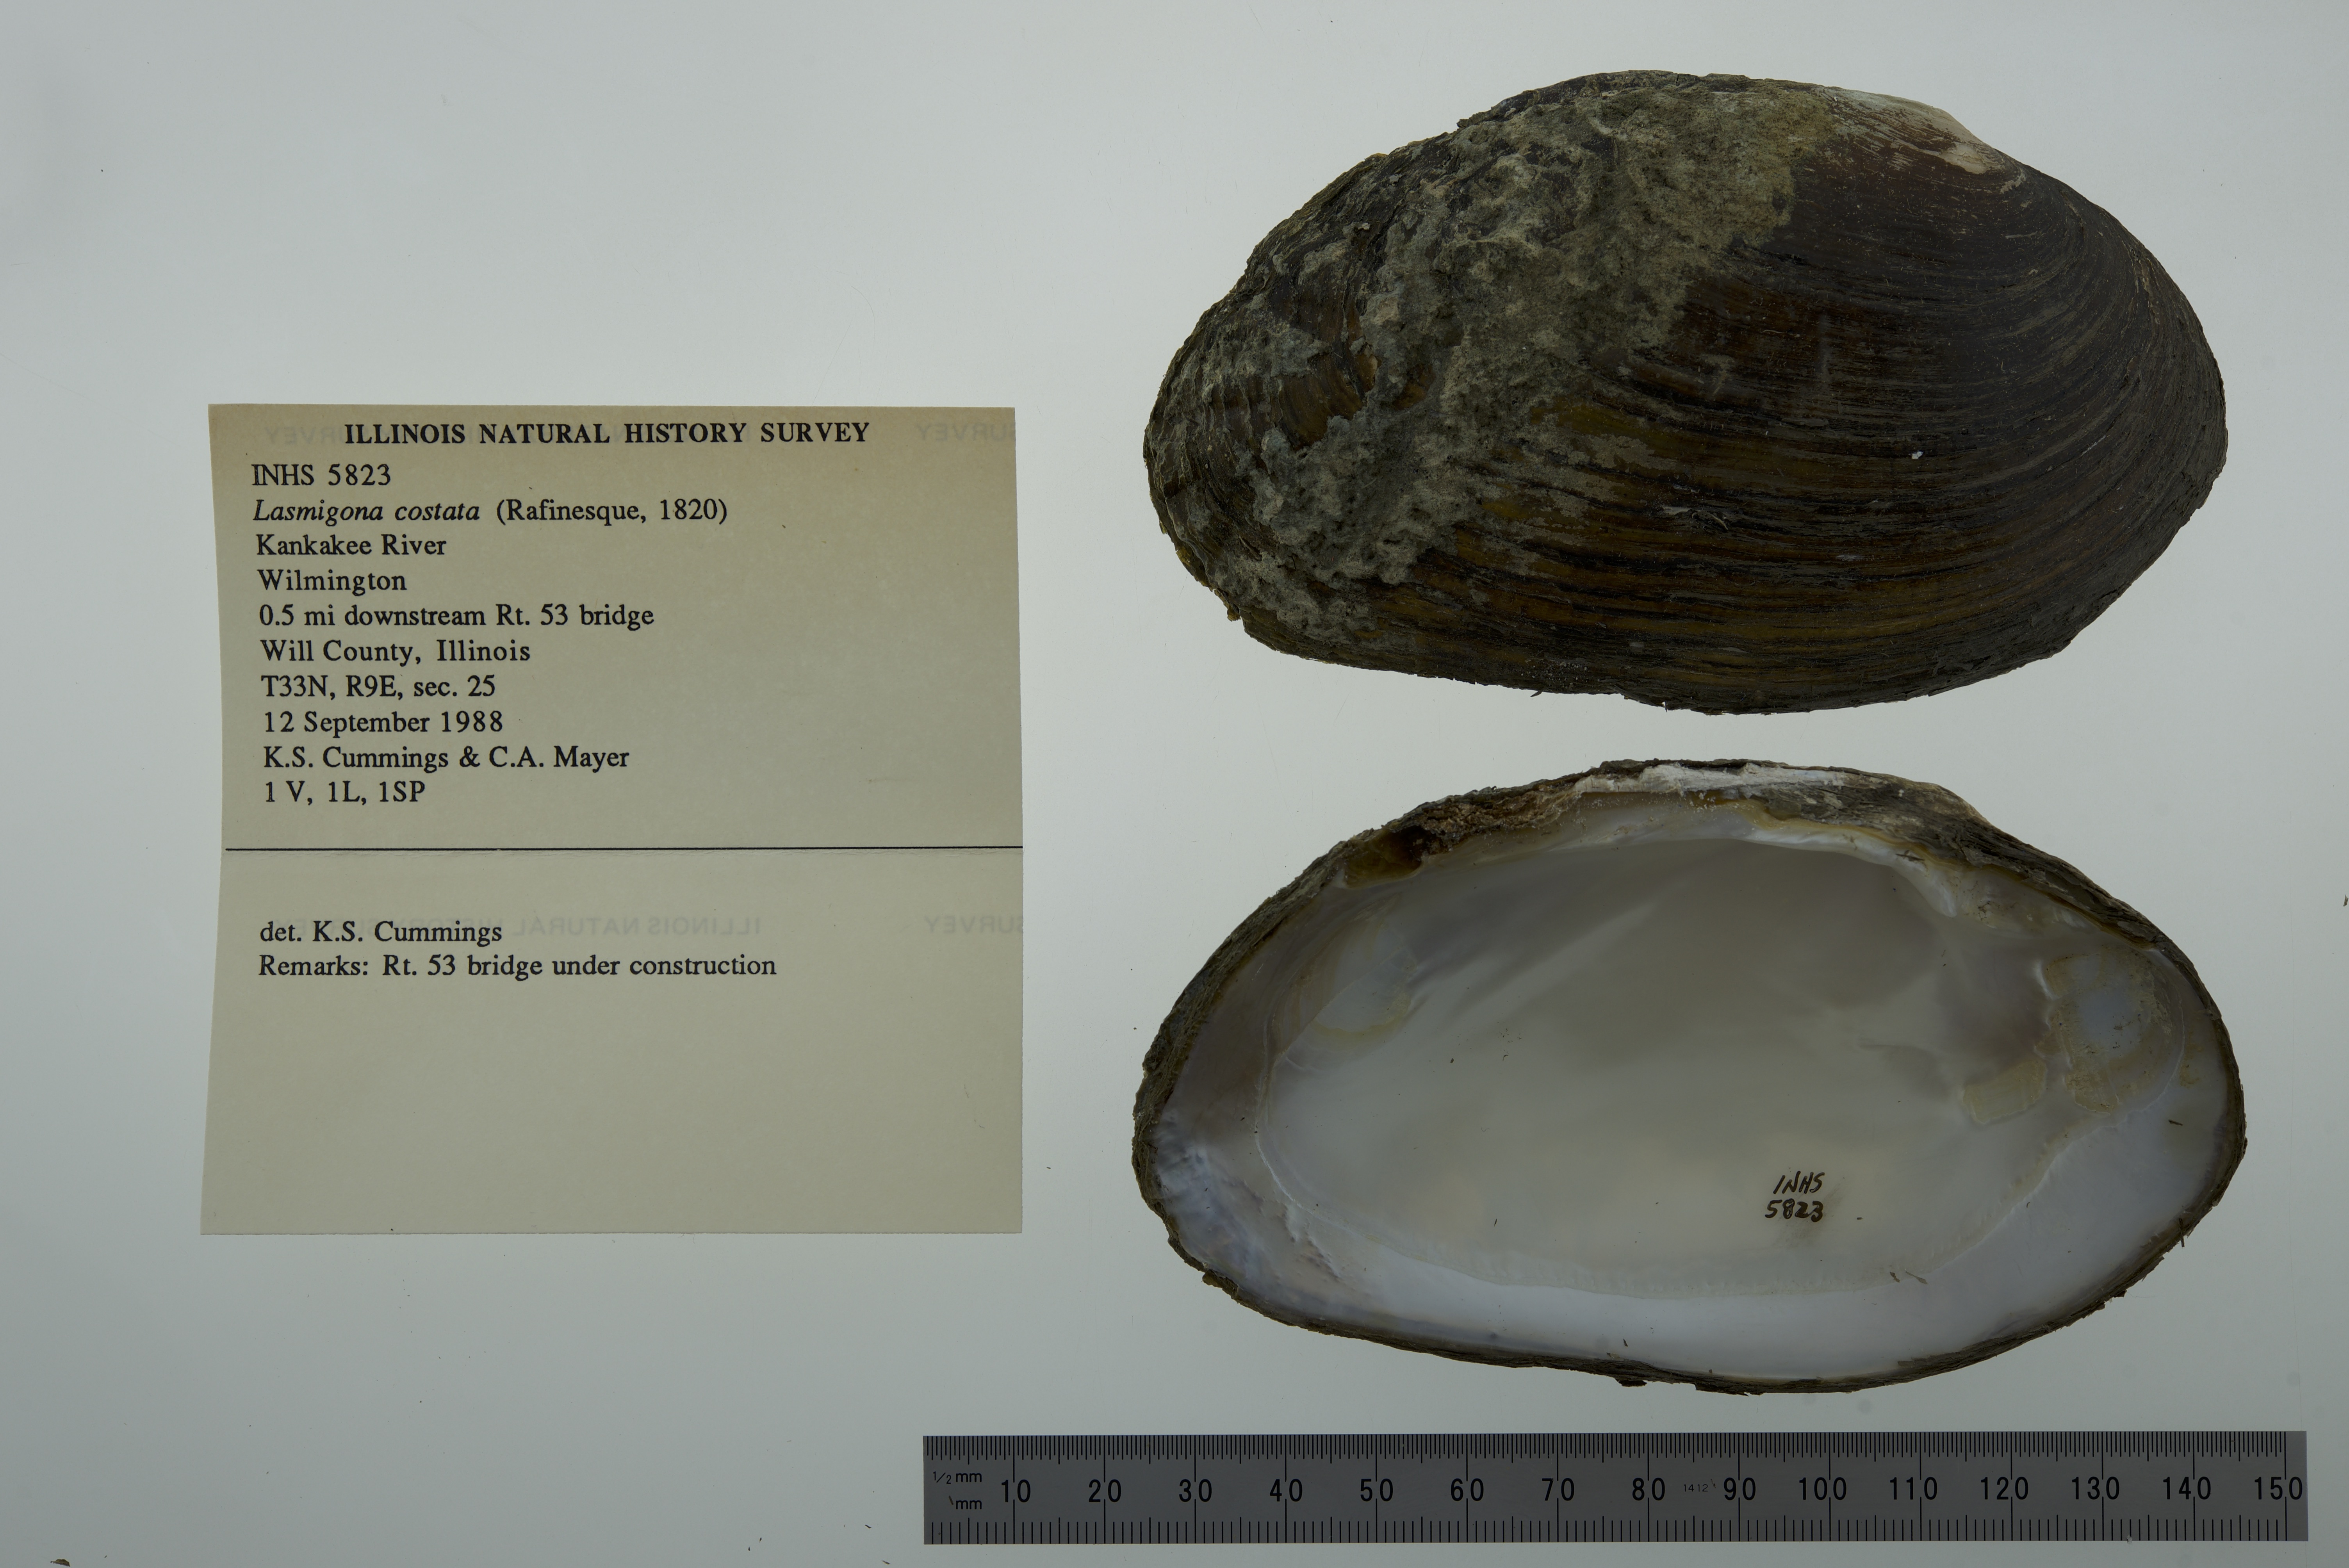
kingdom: Animalia
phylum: Mollusca
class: Bivalvia
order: Unionida
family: Unionidae
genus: Lasmigona
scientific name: Lasmigona costata
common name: Flutedshell
